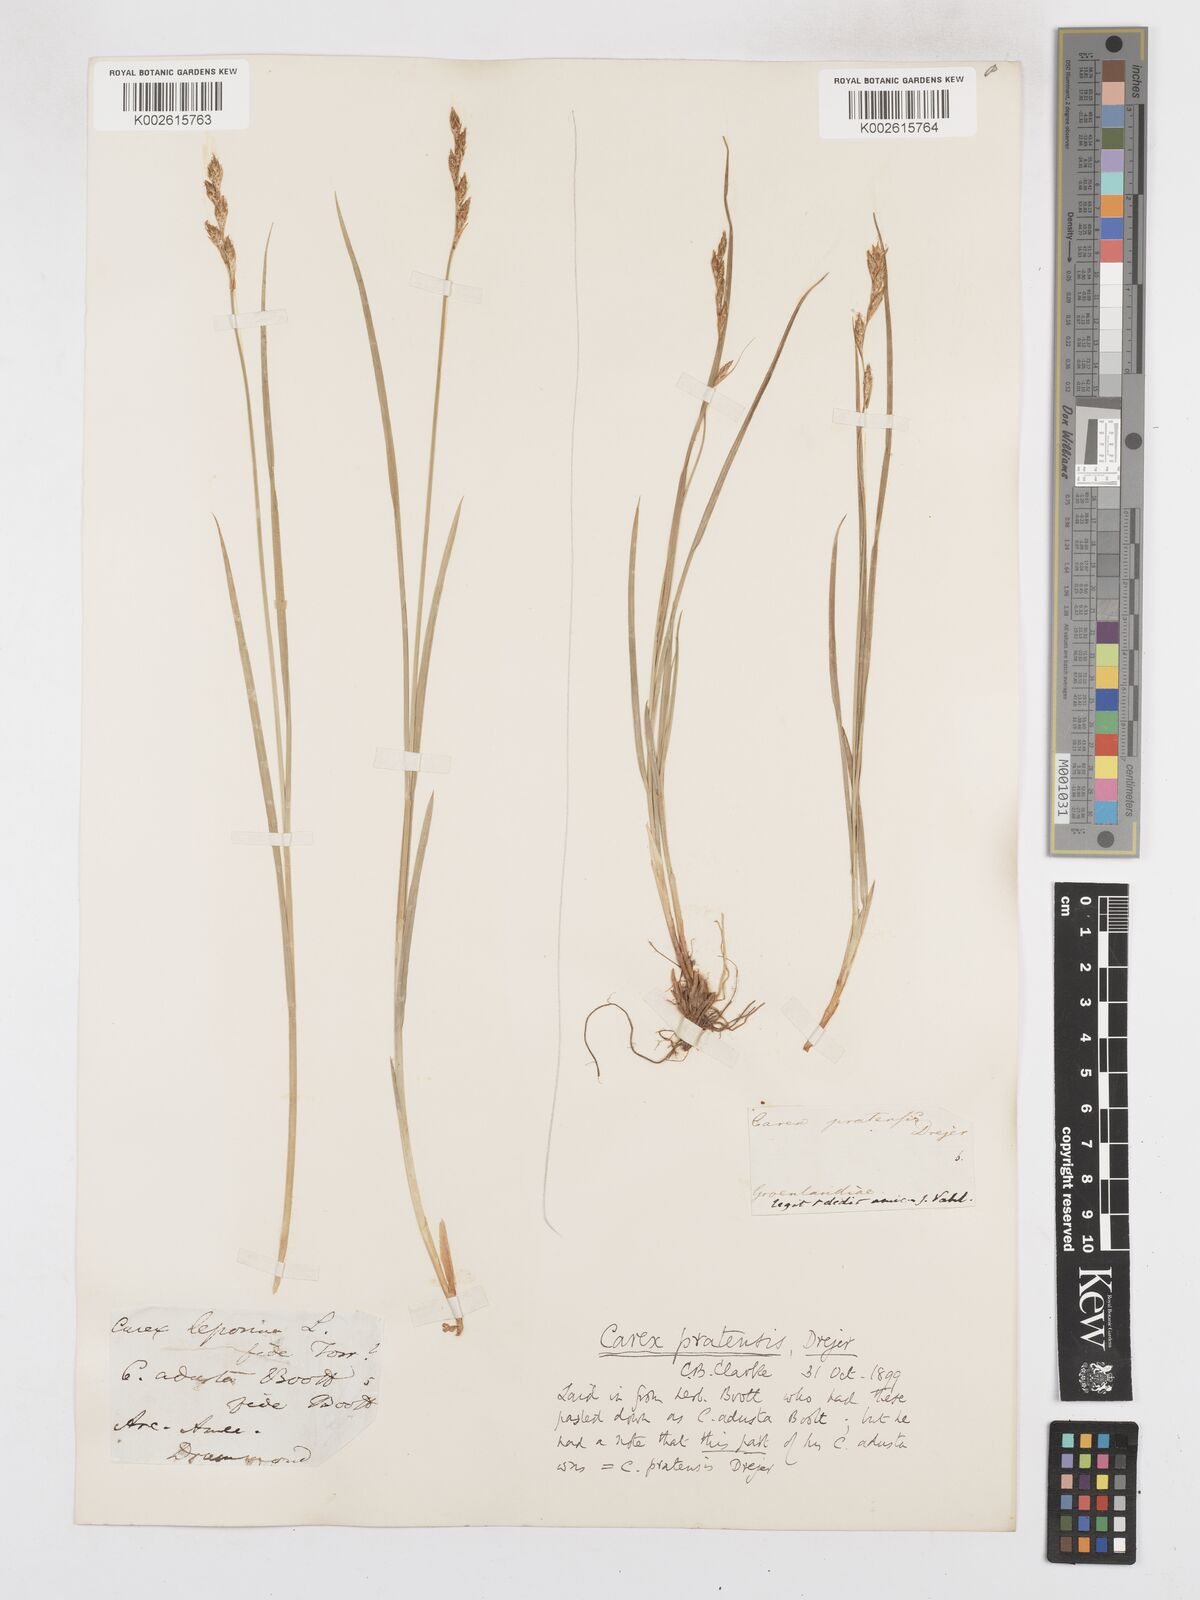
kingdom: Plantae
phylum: Tracheophyta
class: Liliopsida
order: Poales
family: Cyperaceae
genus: Carex
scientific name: Carex praticola
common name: Large-fruited oval sedge
